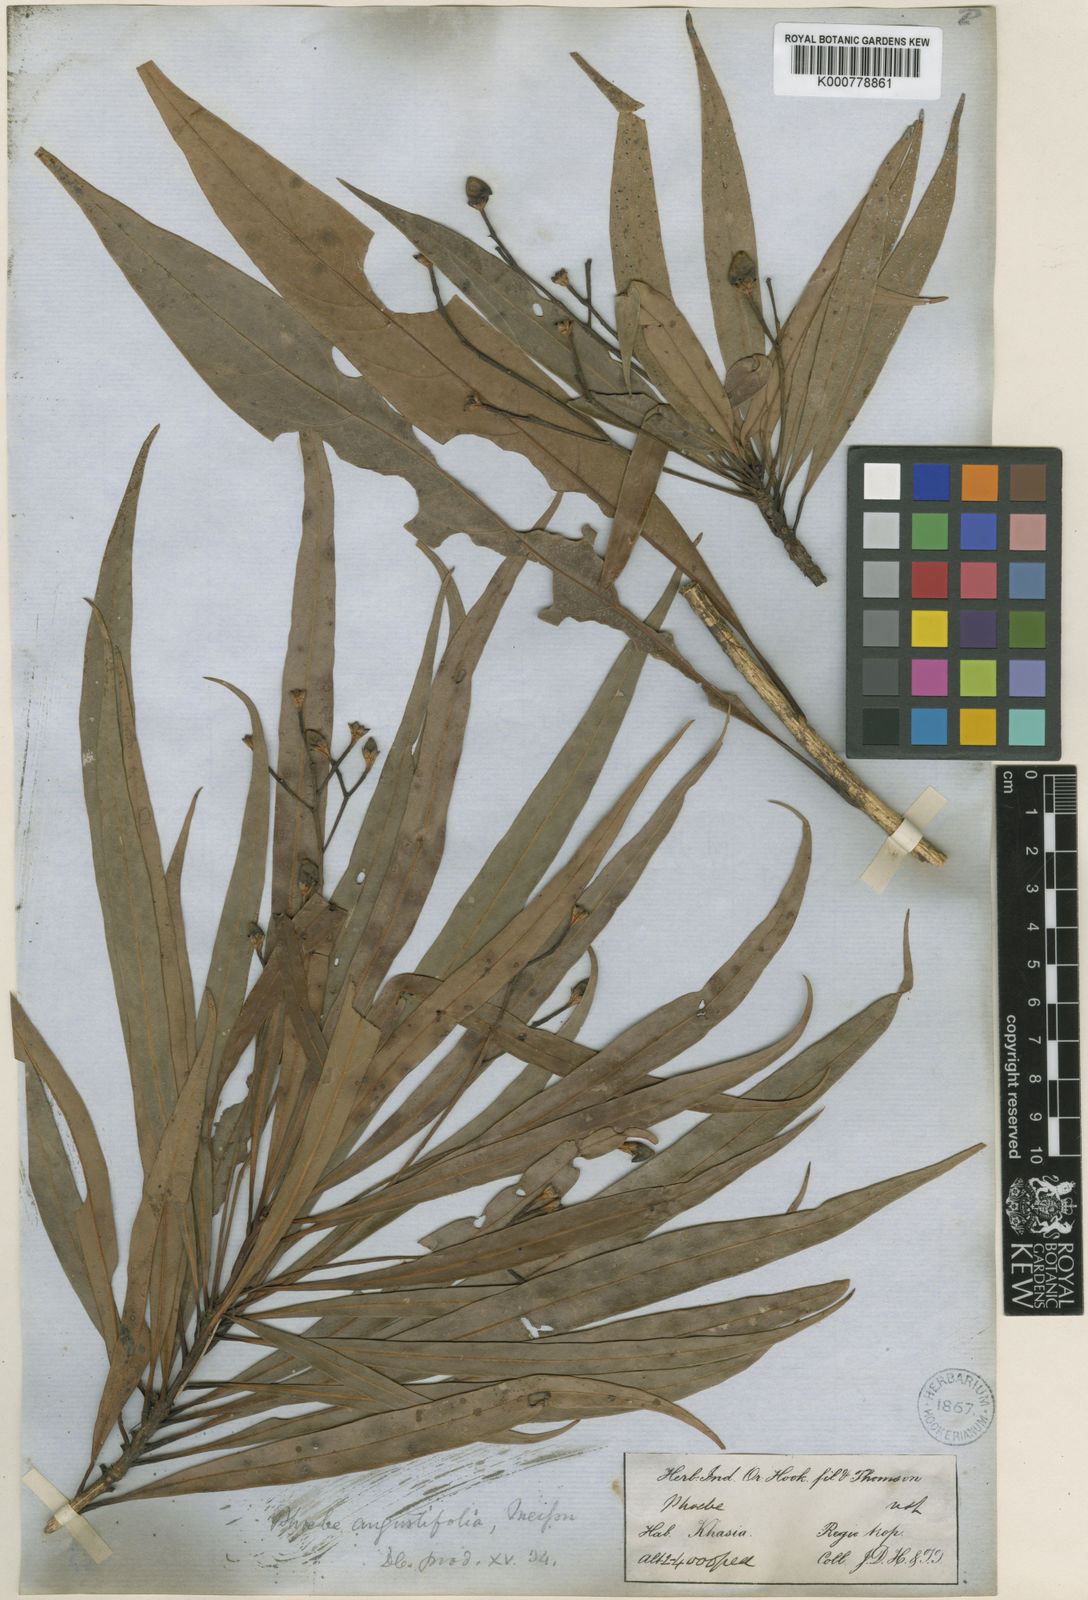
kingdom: Plantae
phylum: Tracheophyta
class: Magnoliopsida
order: Laurales
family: Lauraceae
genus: Phoebe
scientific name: Phoebe angustifolia
